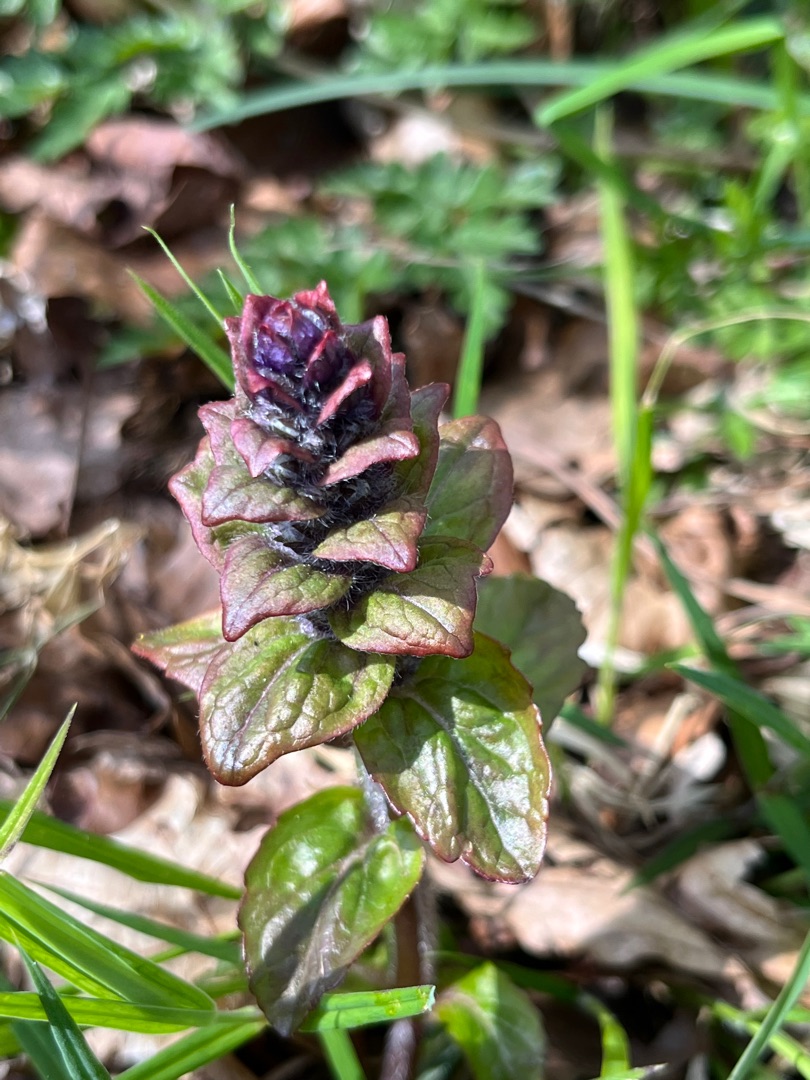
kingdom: Plantae
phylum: Tracheophyta
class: Magnoliopsida
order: Lamiales
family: Lamiaceae
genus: Ajuga
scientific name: Ajuga reptans
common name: Krybende læbeløs
